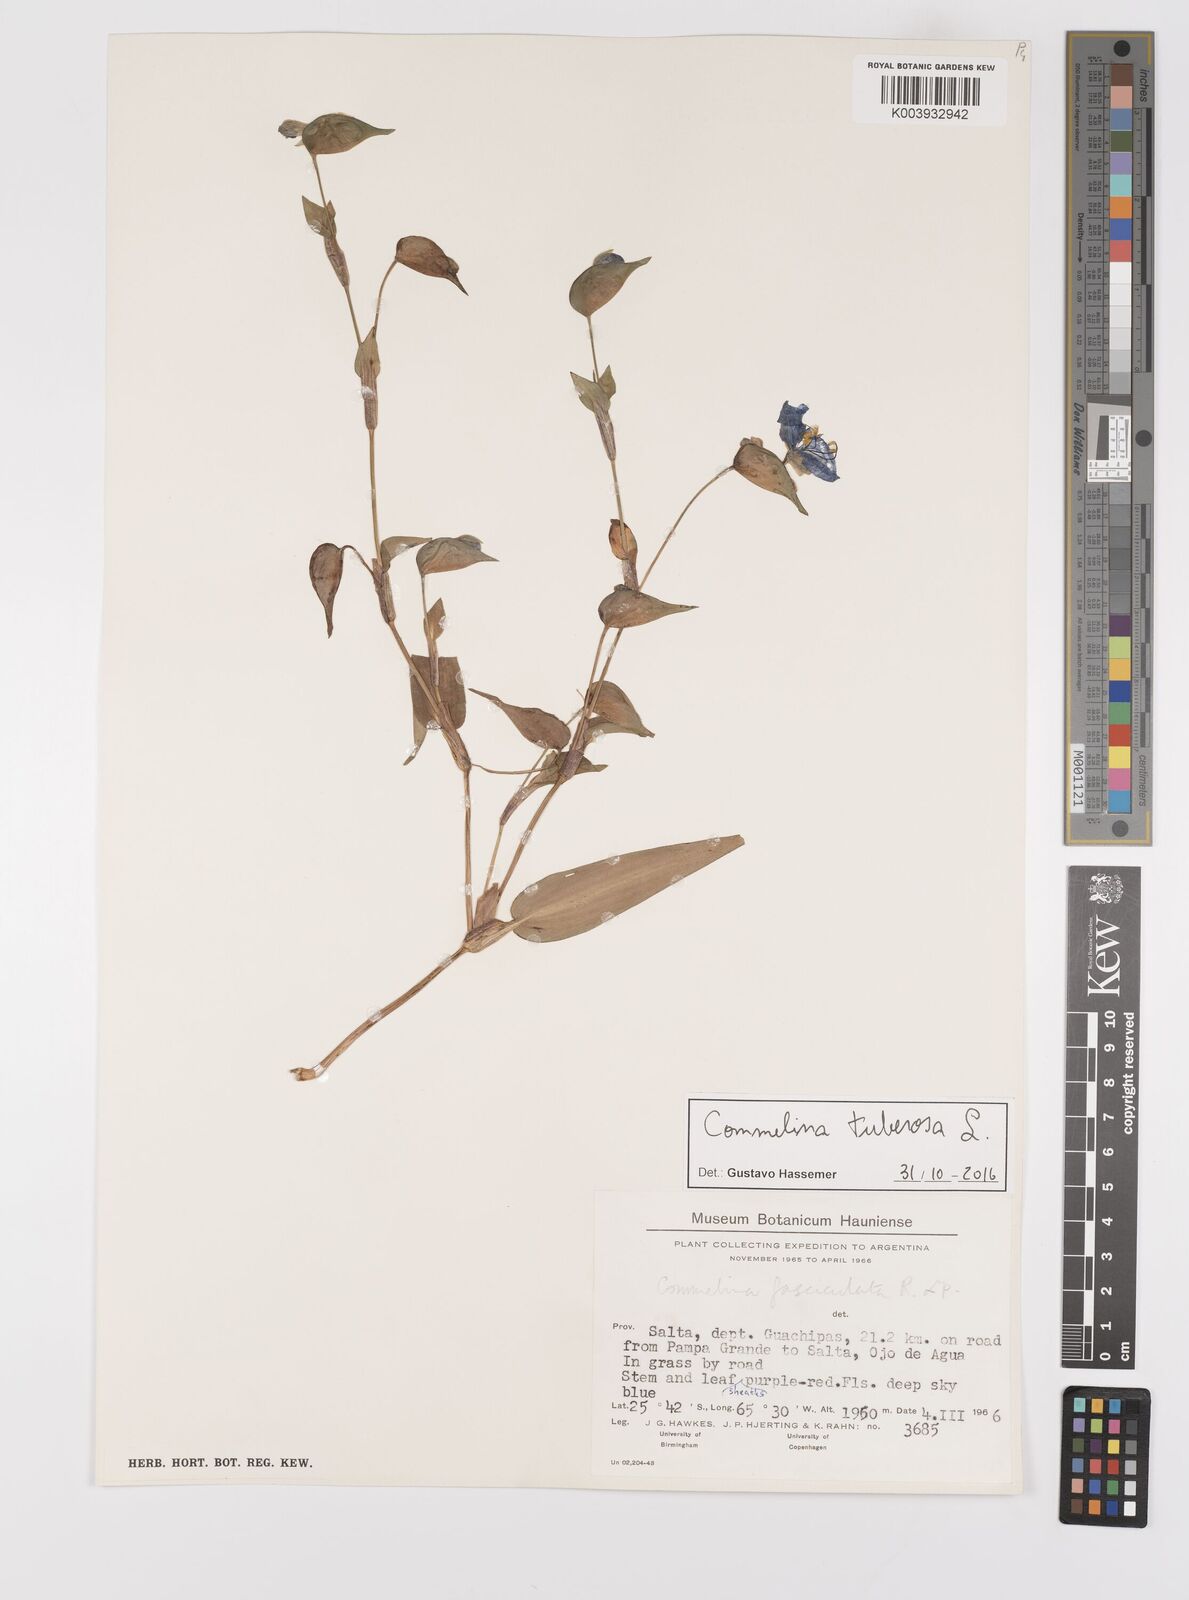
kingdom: Plantae
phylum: Tracheophyta
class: Liliopsida
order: Commelinales
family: Commelinaceae
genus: Commelina
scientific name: Commelina tuberosa
